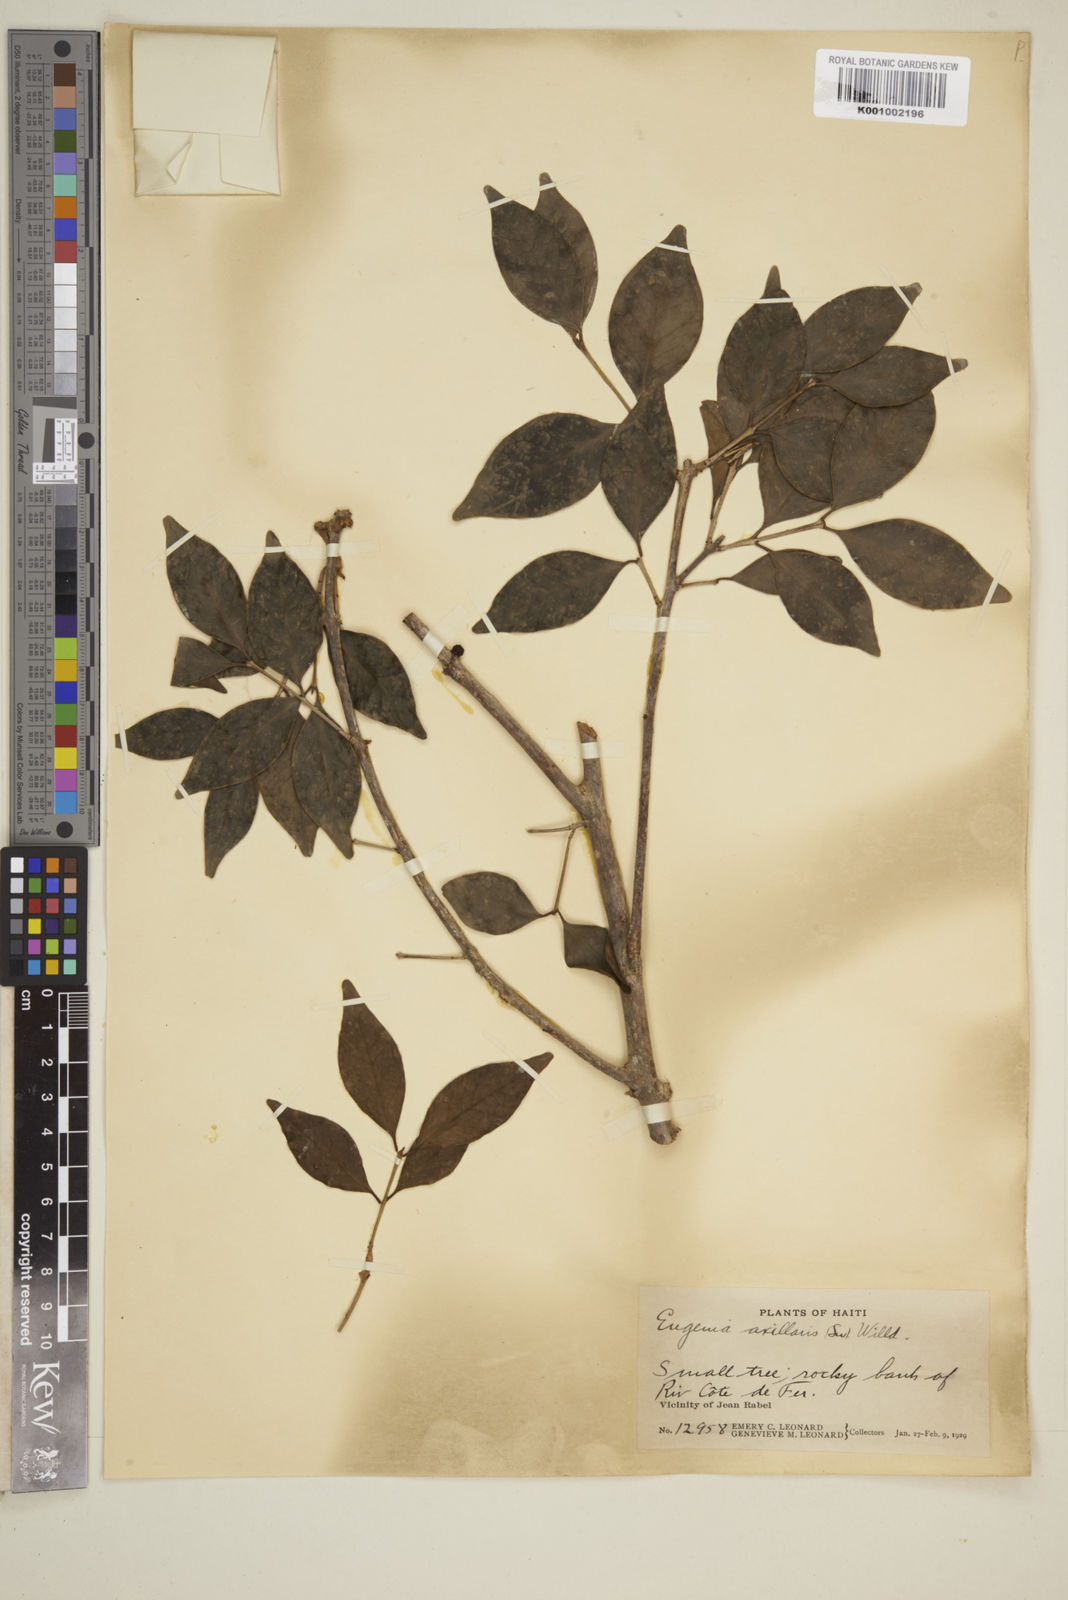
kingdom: Plantae
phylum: Tracheophyta
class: Magnoliopsida
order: Myrtales
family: Myrtaceae
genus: Eugenia
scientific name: Eugenia axillaris
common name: Choaky berry
